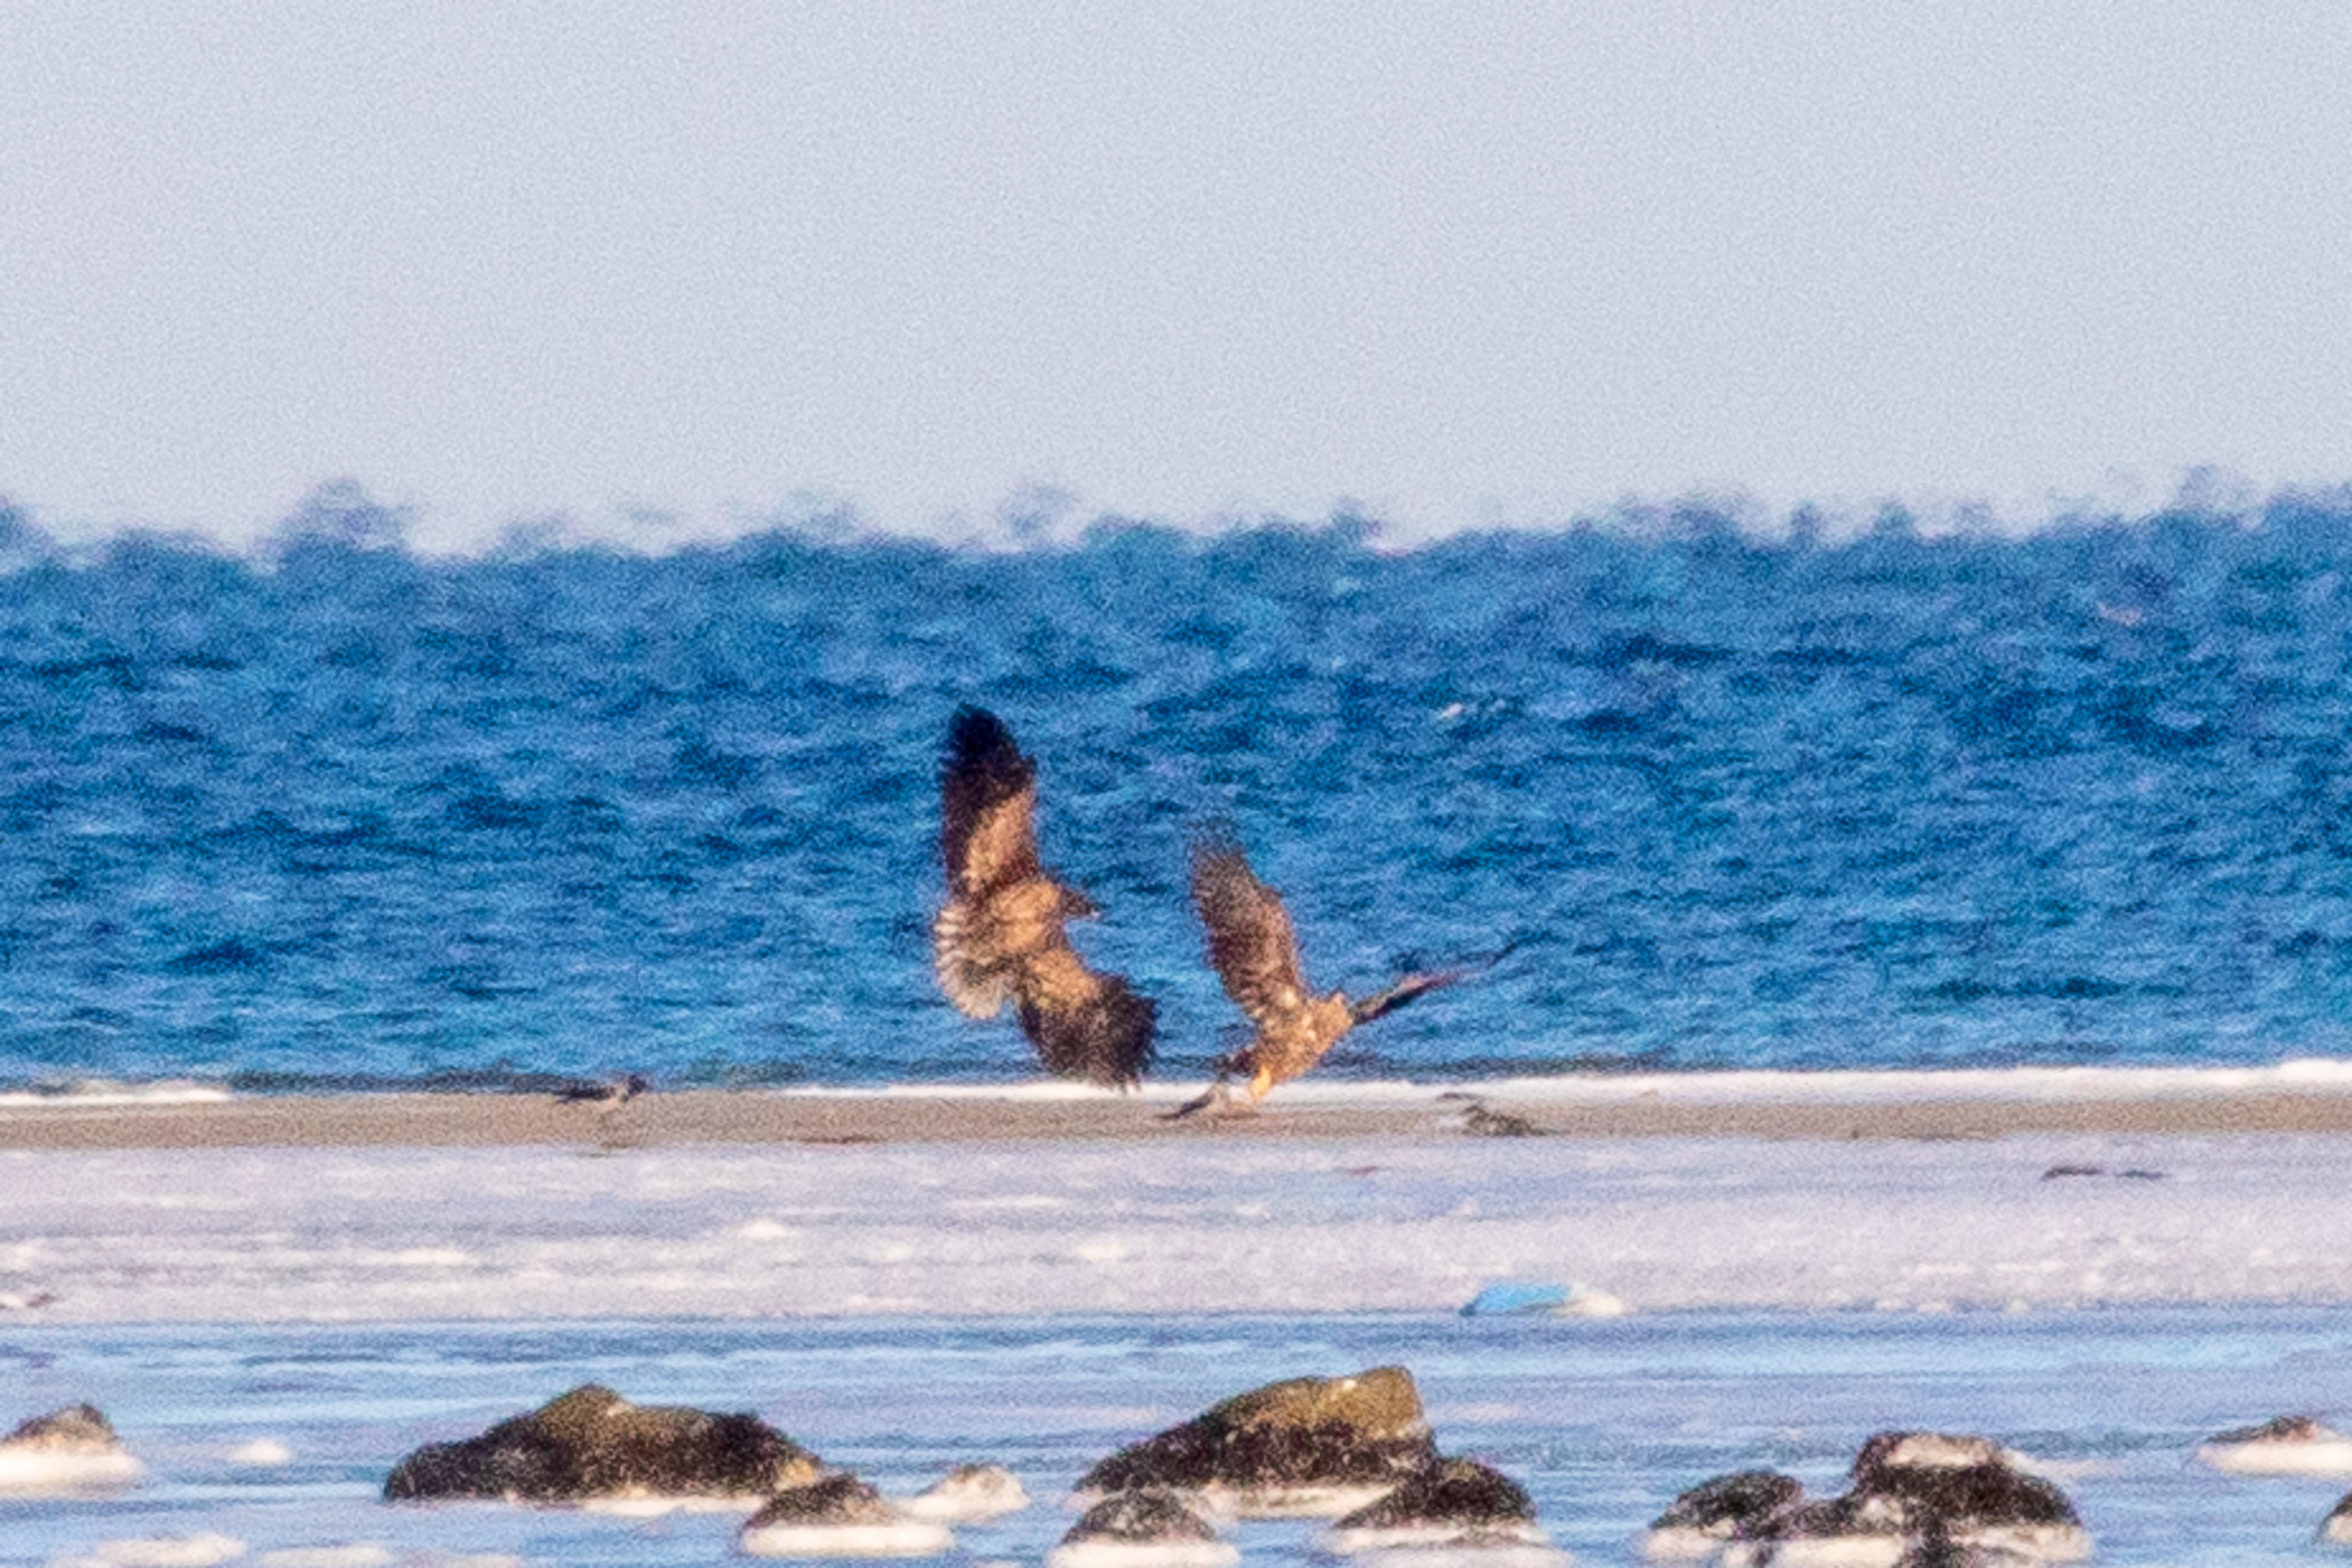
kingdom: Animalia
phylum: Chordata
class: Aves
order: Accipitriformes
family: Accipitridae
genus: Haliaeetus
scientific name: Haliaeetus albicilla
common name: Havørn
